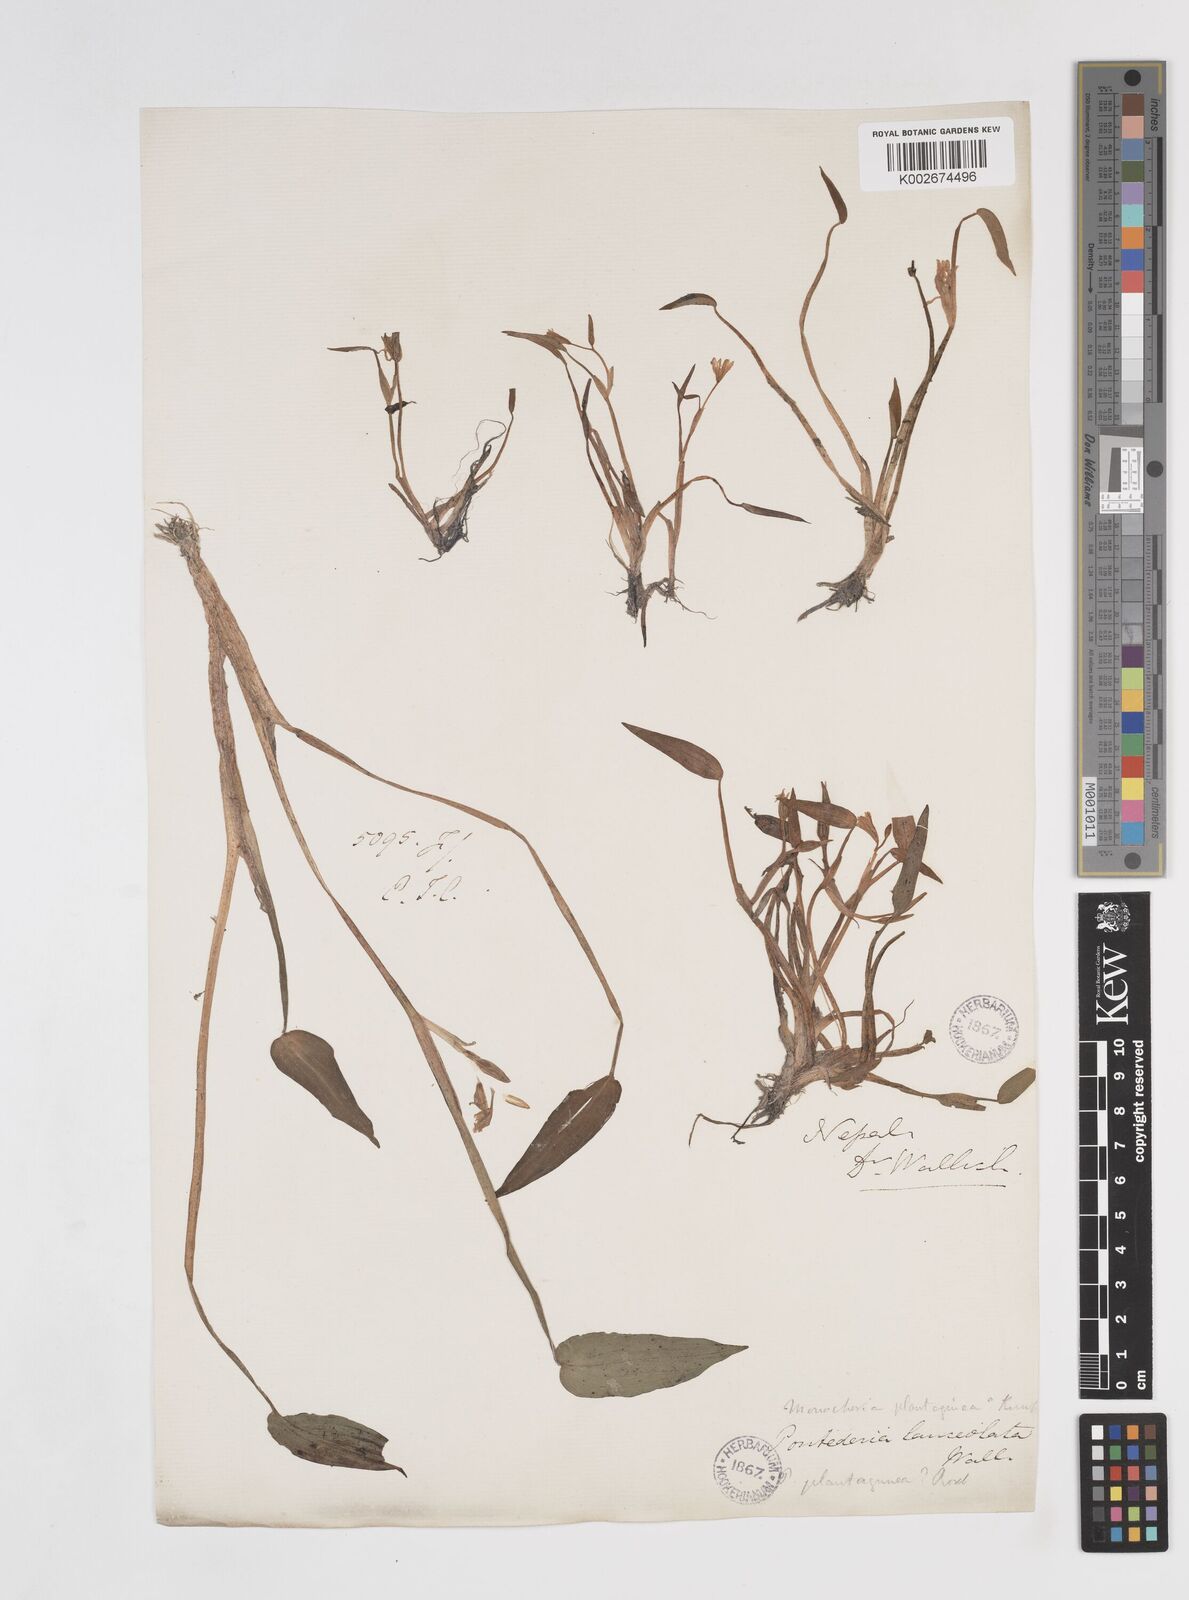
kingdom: Plantae
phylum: Tracheophyta
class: Liliopsida
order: Commelinales
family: Pontederiaceae
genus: Pontederia
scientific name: Pontederia vaginalis
